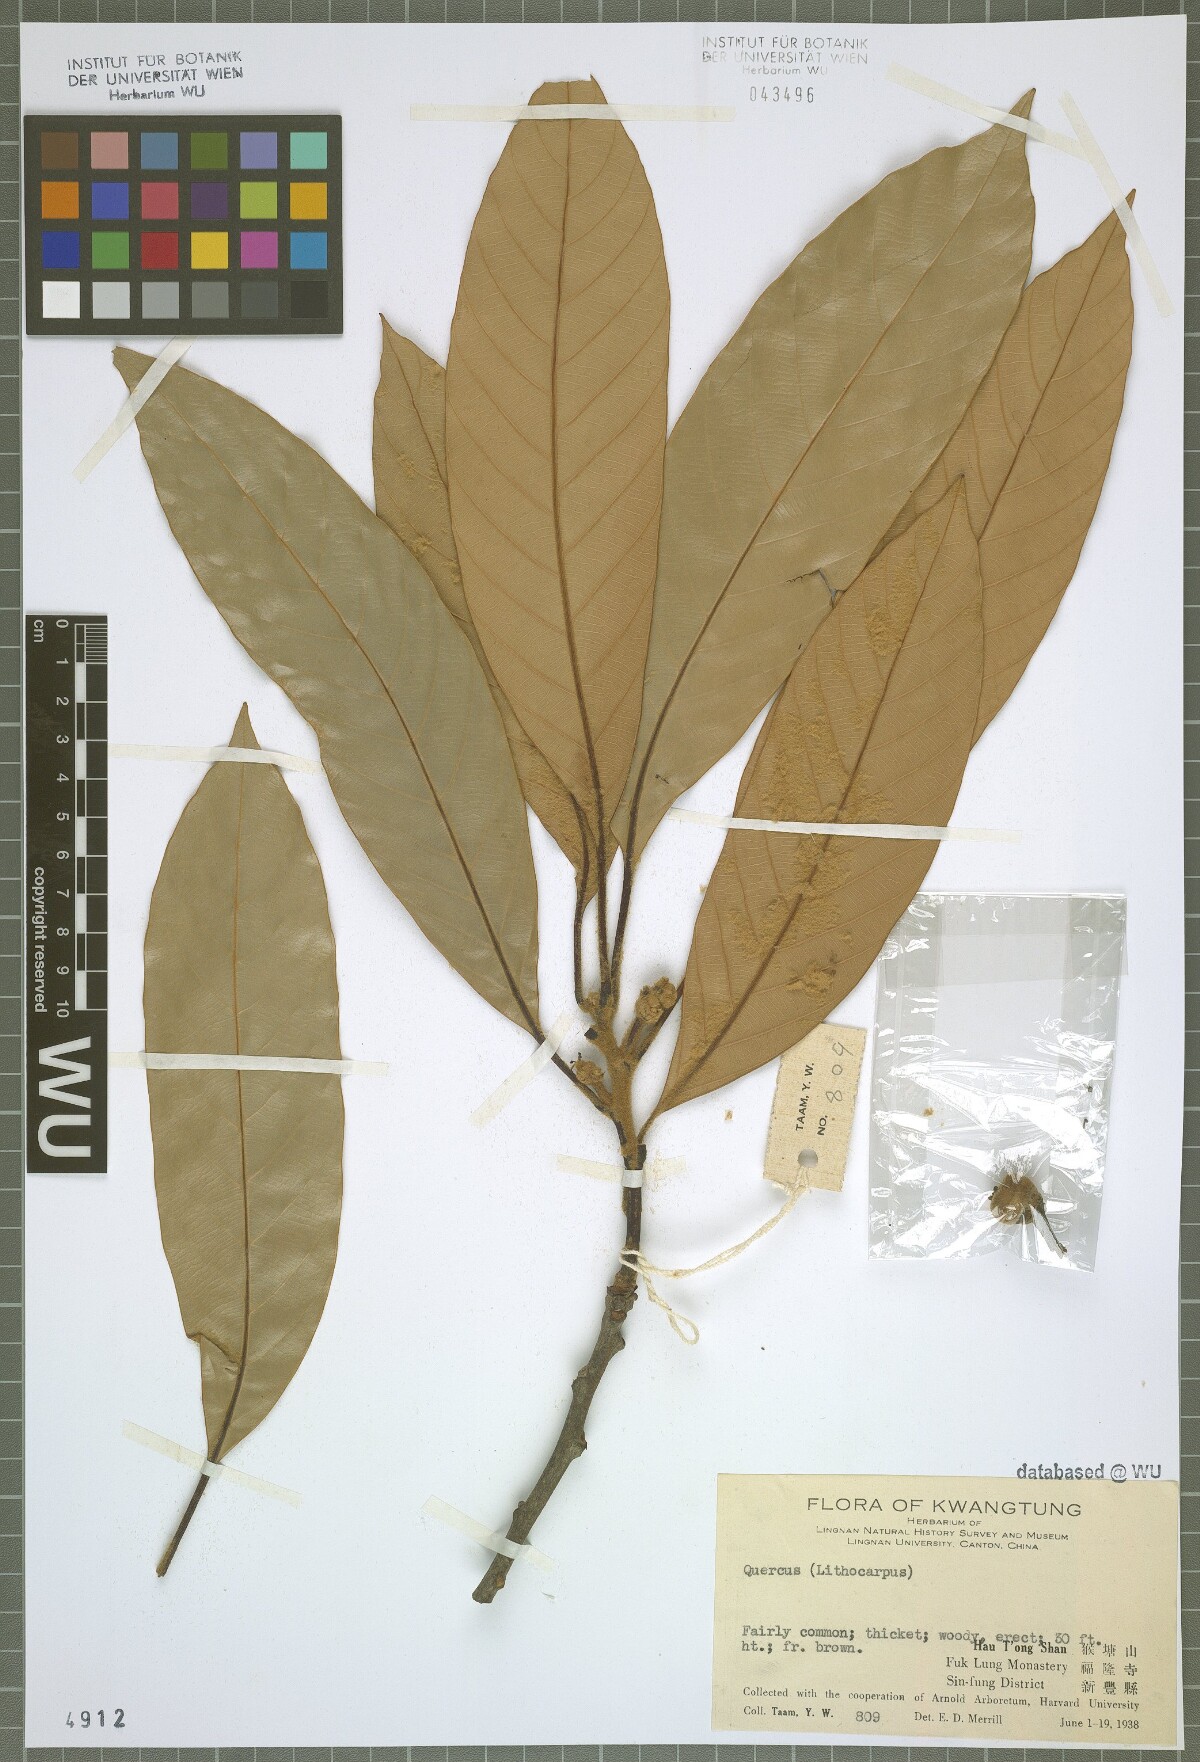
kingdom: Plantae
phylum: Tracheophyta
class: Magnoliopsida
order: Fagales
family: Fagaceae
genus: Quercus
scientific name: Quercus
